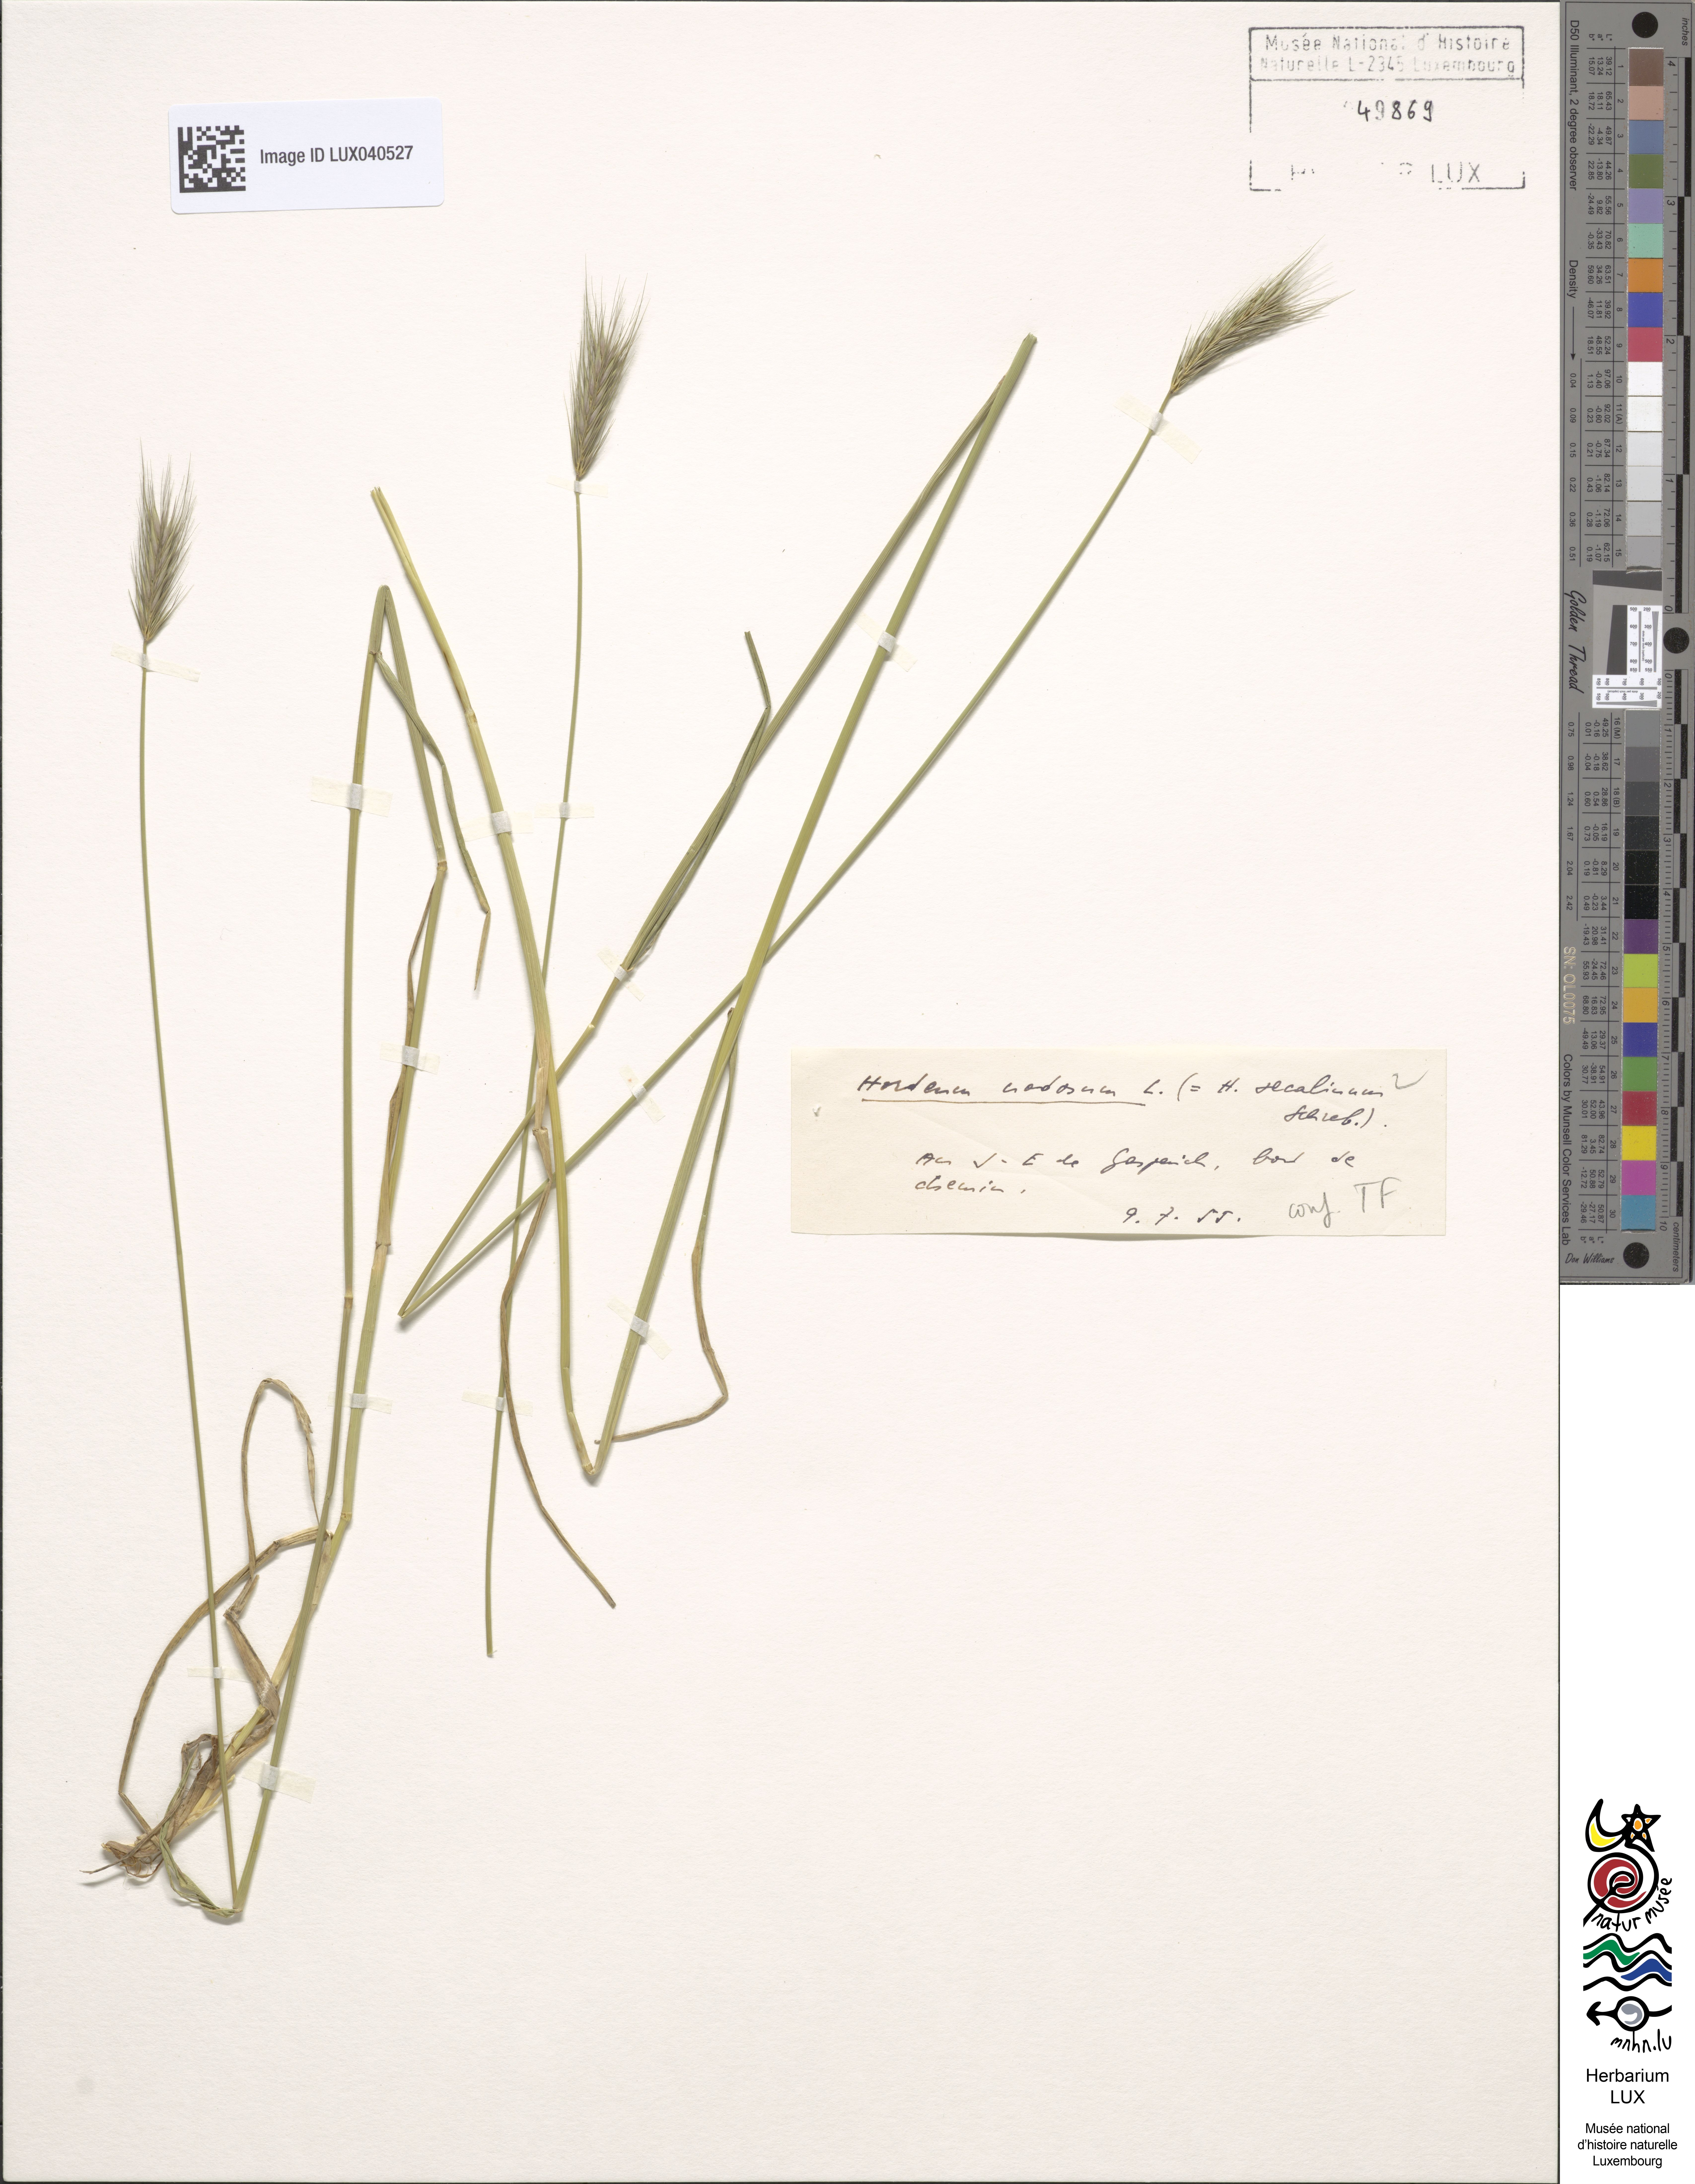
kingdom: Plantae
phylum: Tracheophyta
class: Liliopsida
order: Poales
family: Poaceae
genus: Hordeum
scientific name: Hordeum secalinum
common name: Meadow barley
